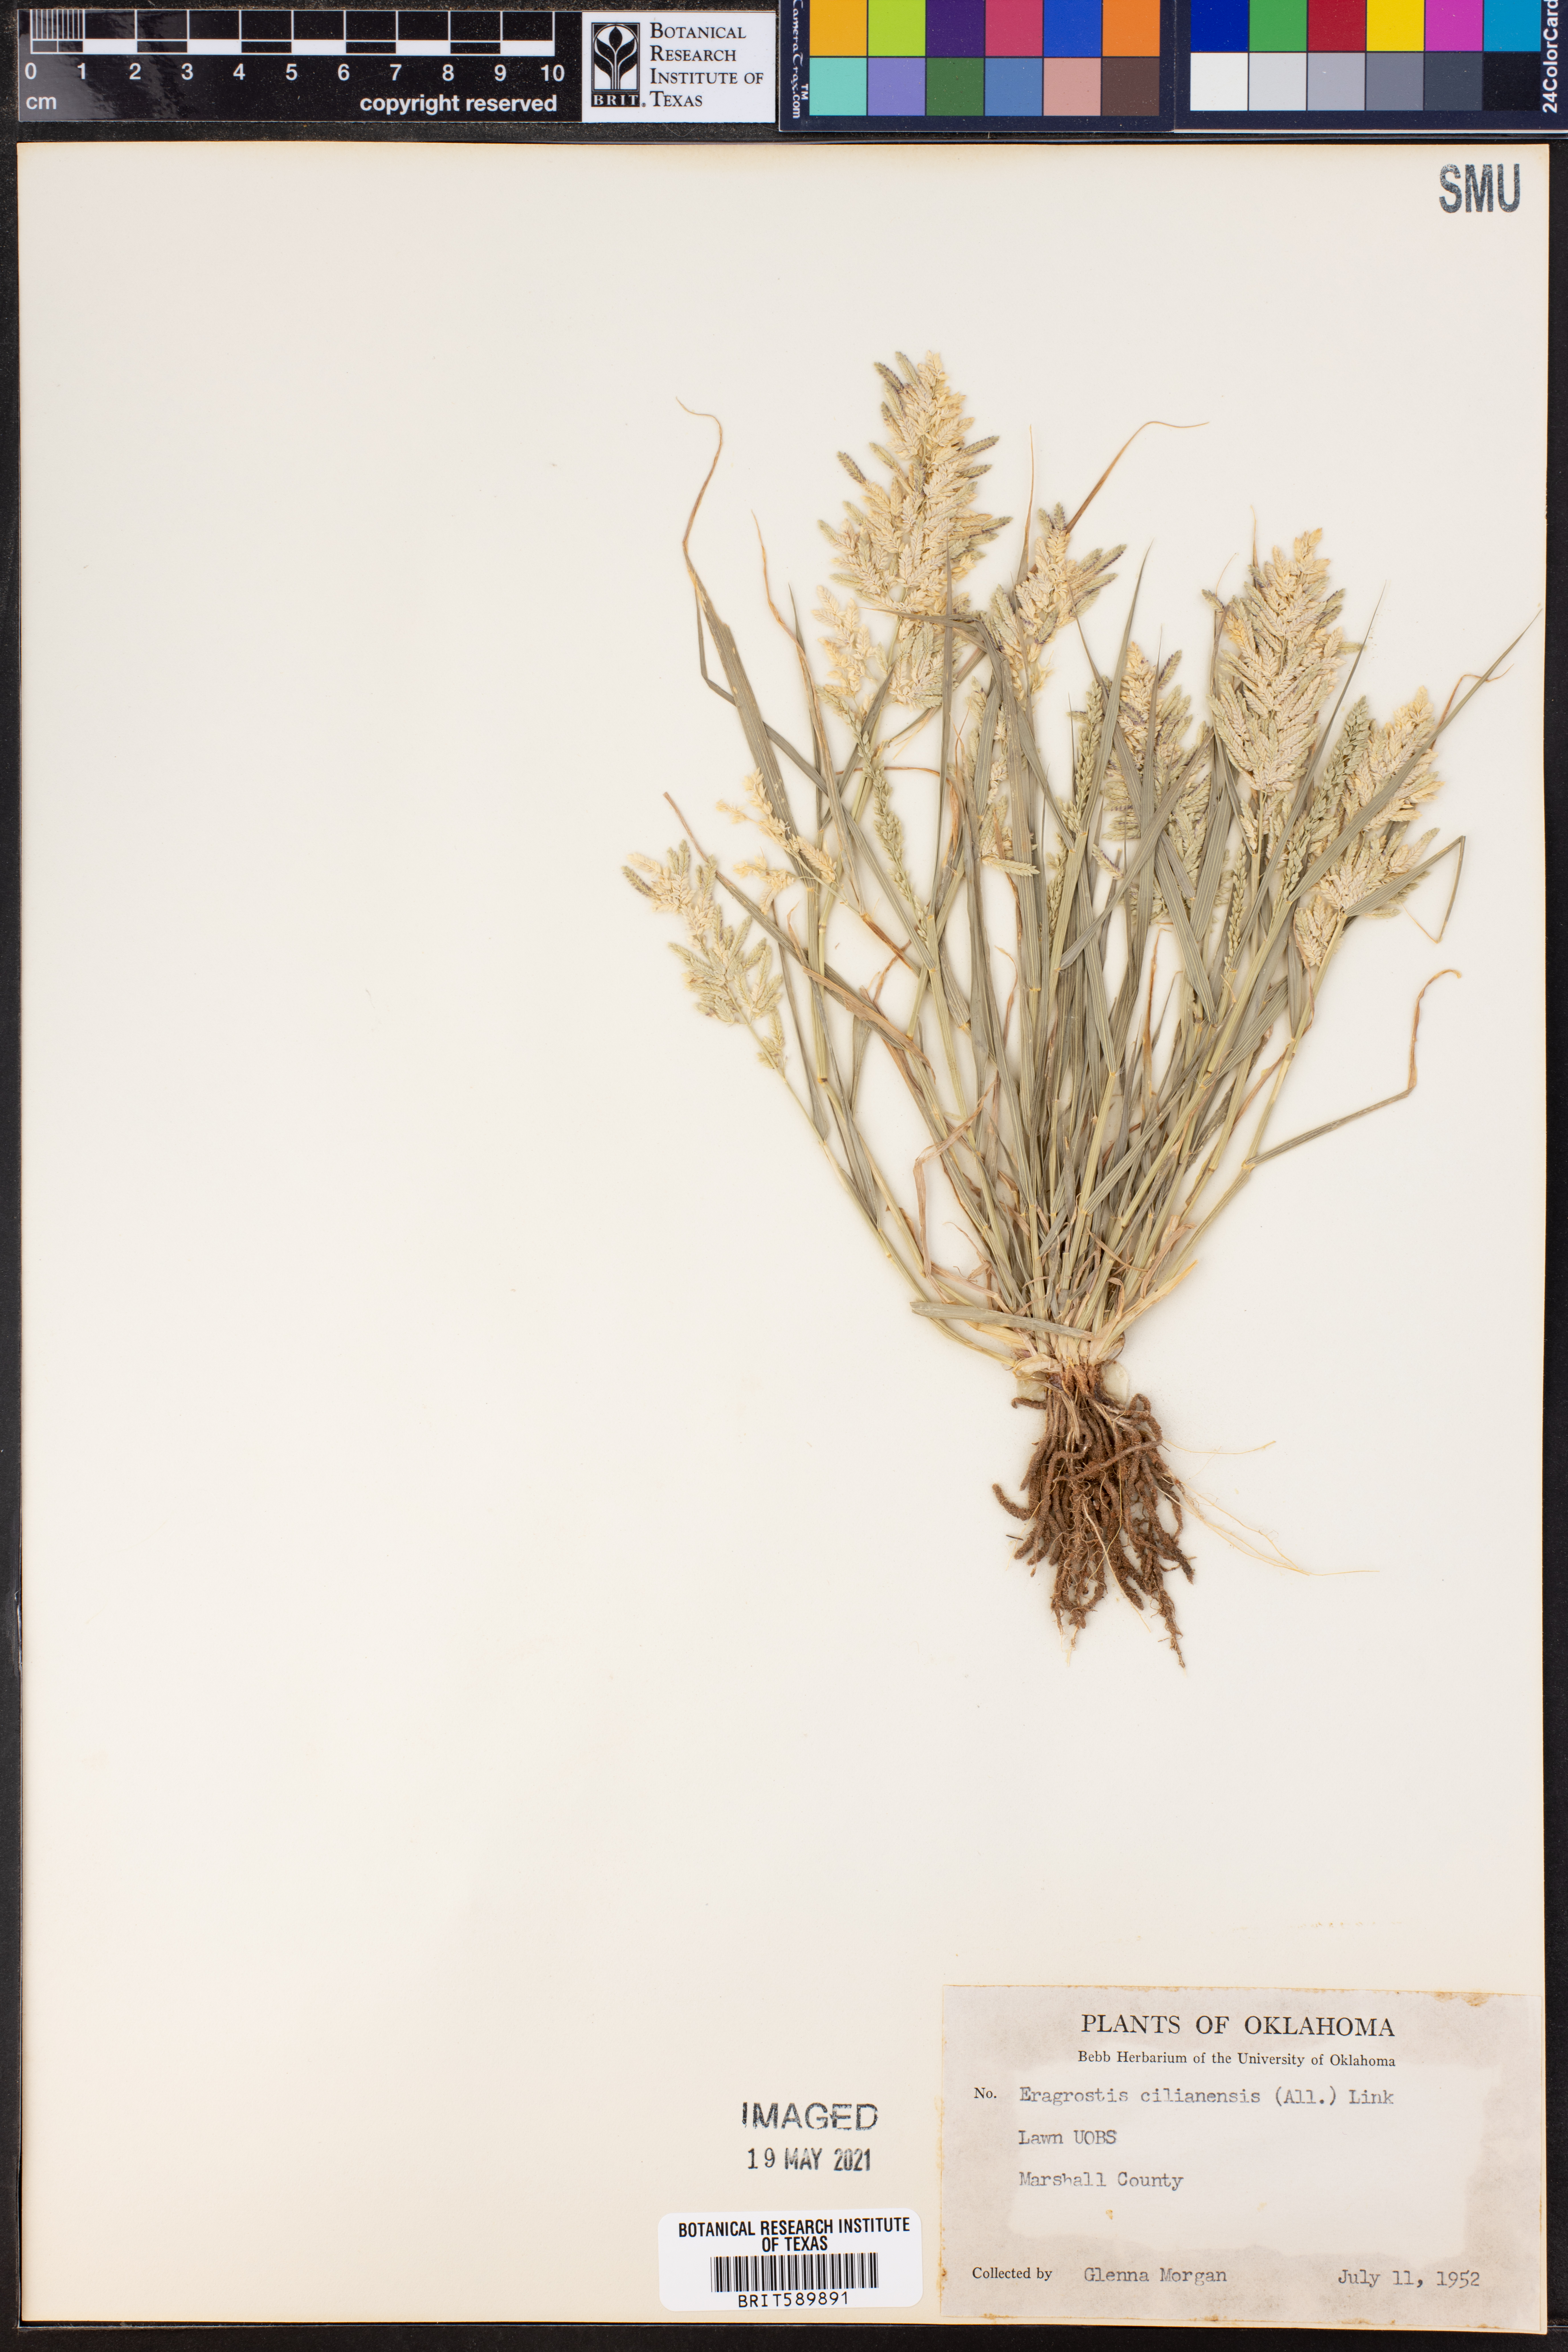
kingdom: Plantae
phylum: Tracheophyta
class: Liliopsida
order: Poales
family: Poaceae
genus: Eragrostis
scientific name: Eragrostis cilianensis
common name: Stinkgrass
